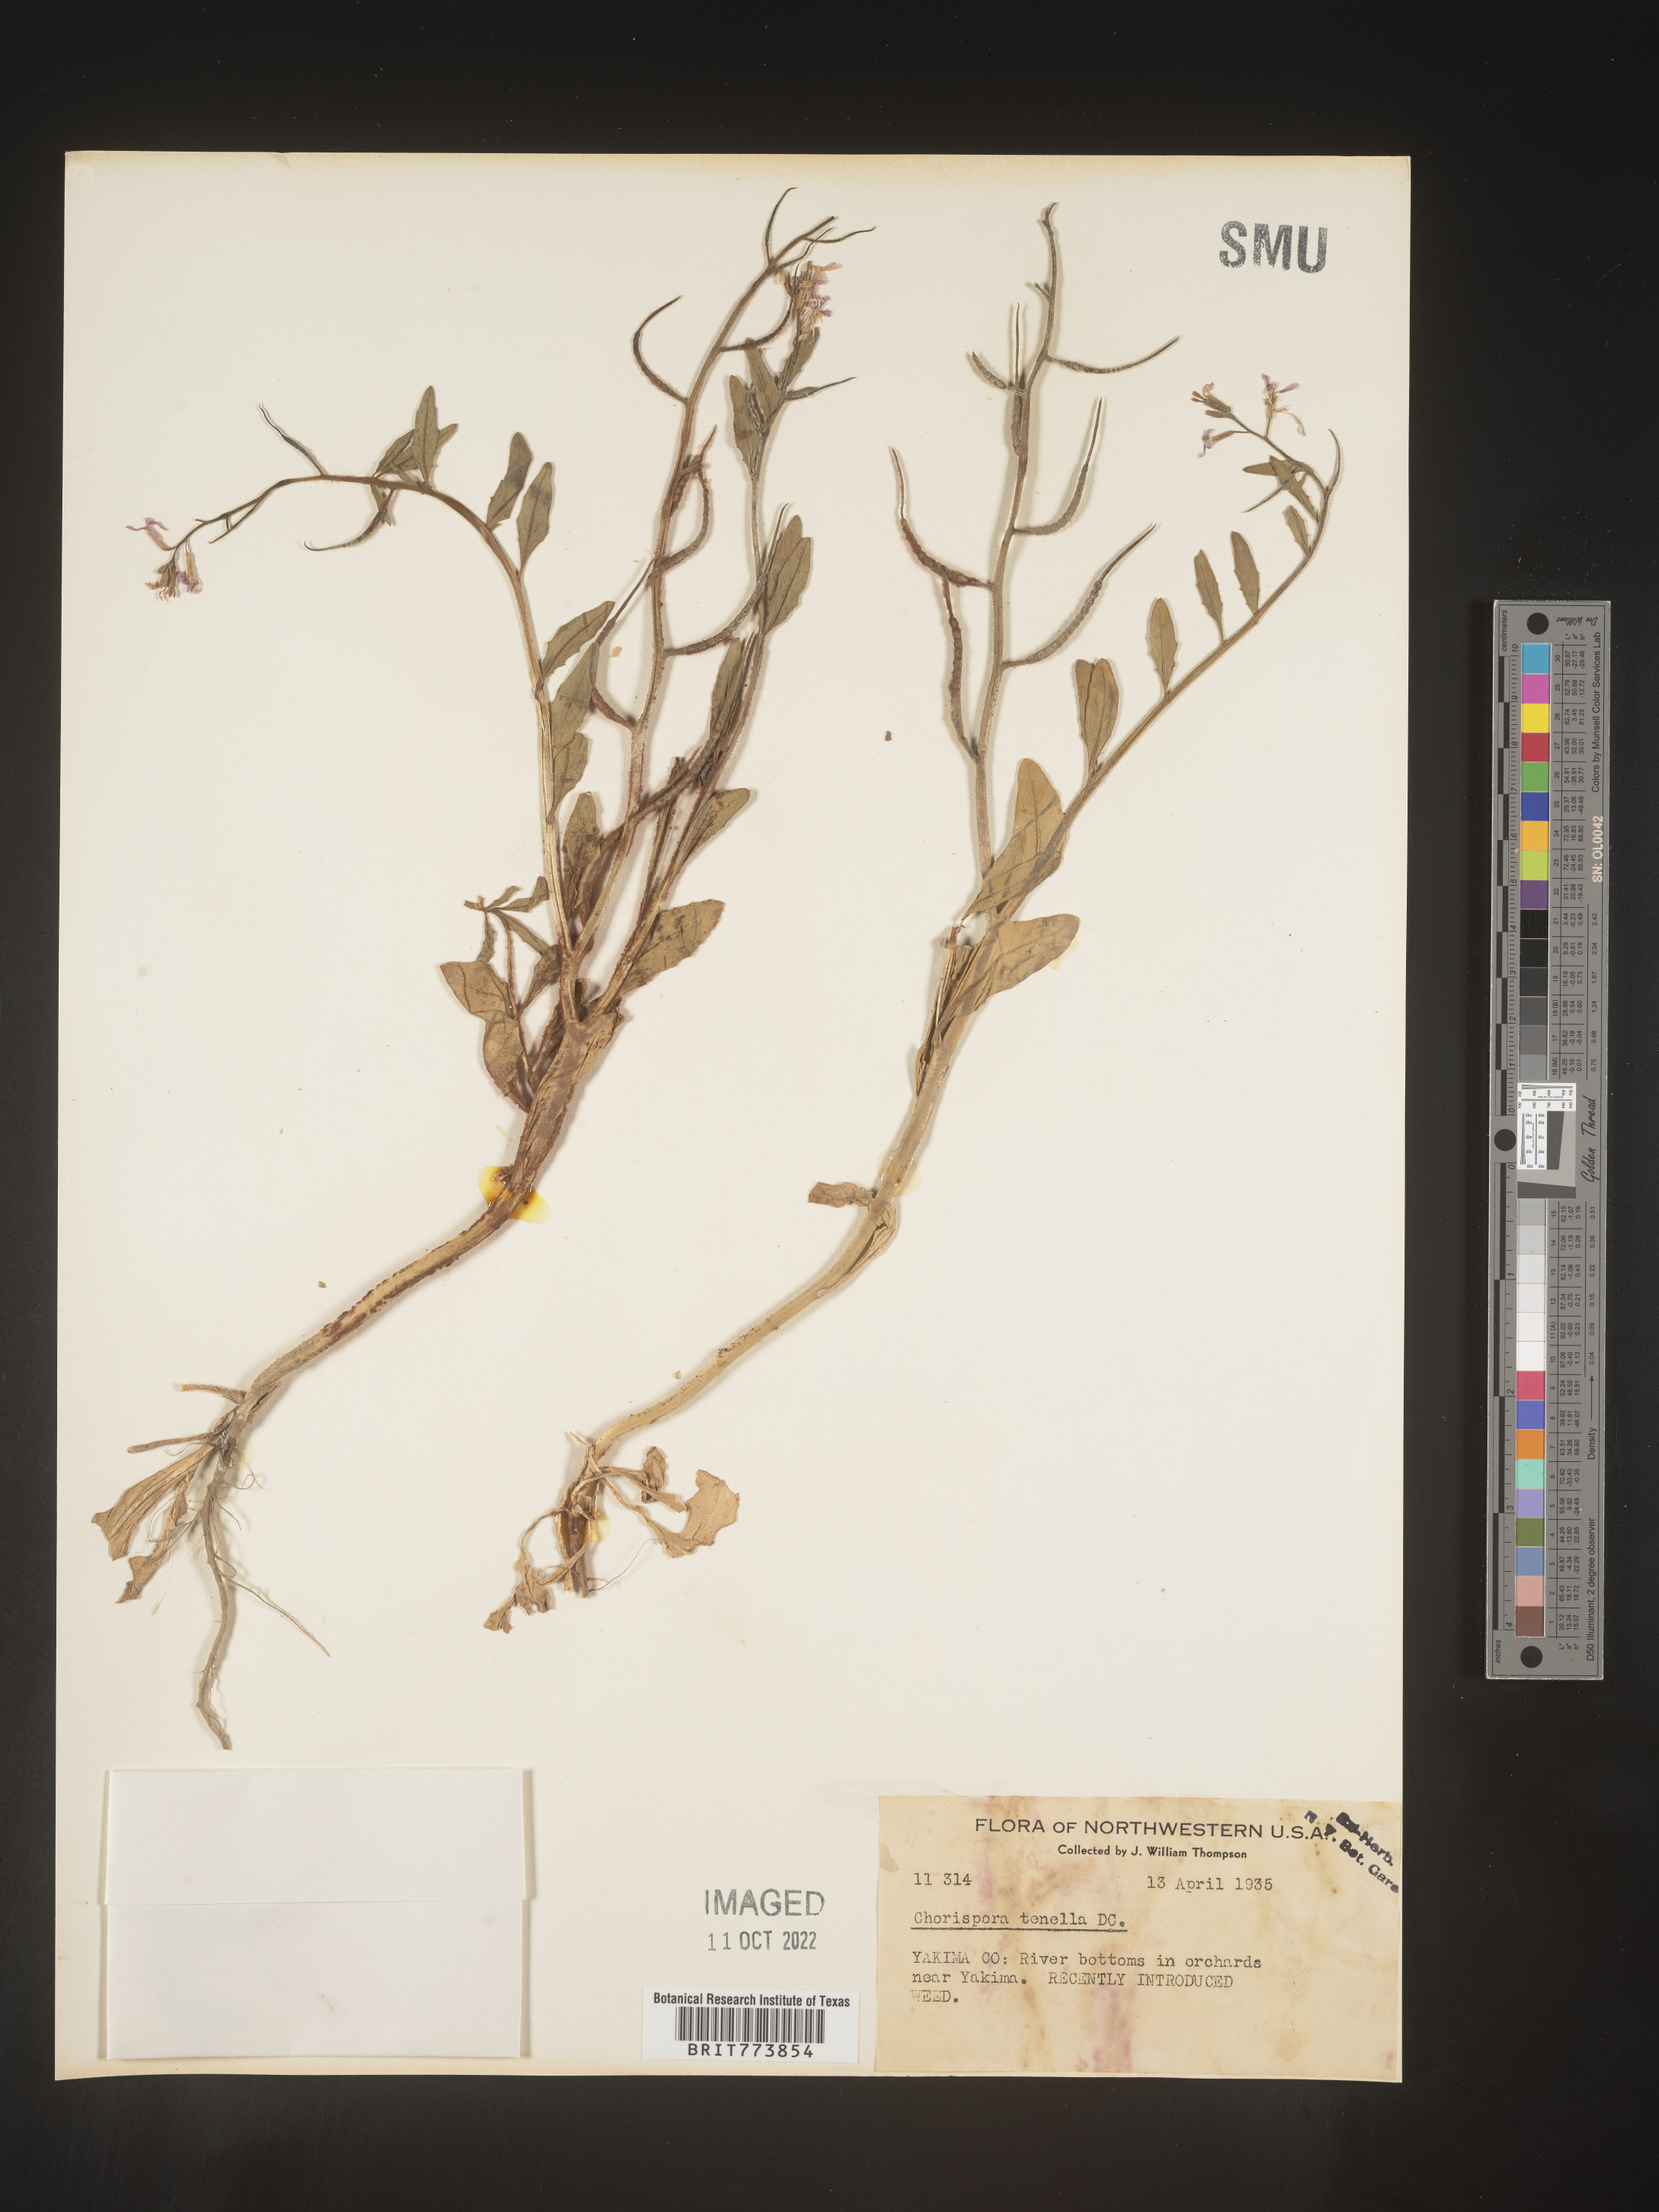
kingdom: Plantae
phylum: Tracheophyta
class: Magnoliopsida
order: Brassicales
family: Brassicaceae
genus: Chorispora
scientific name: Chorispora tenella
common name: Crossflower
